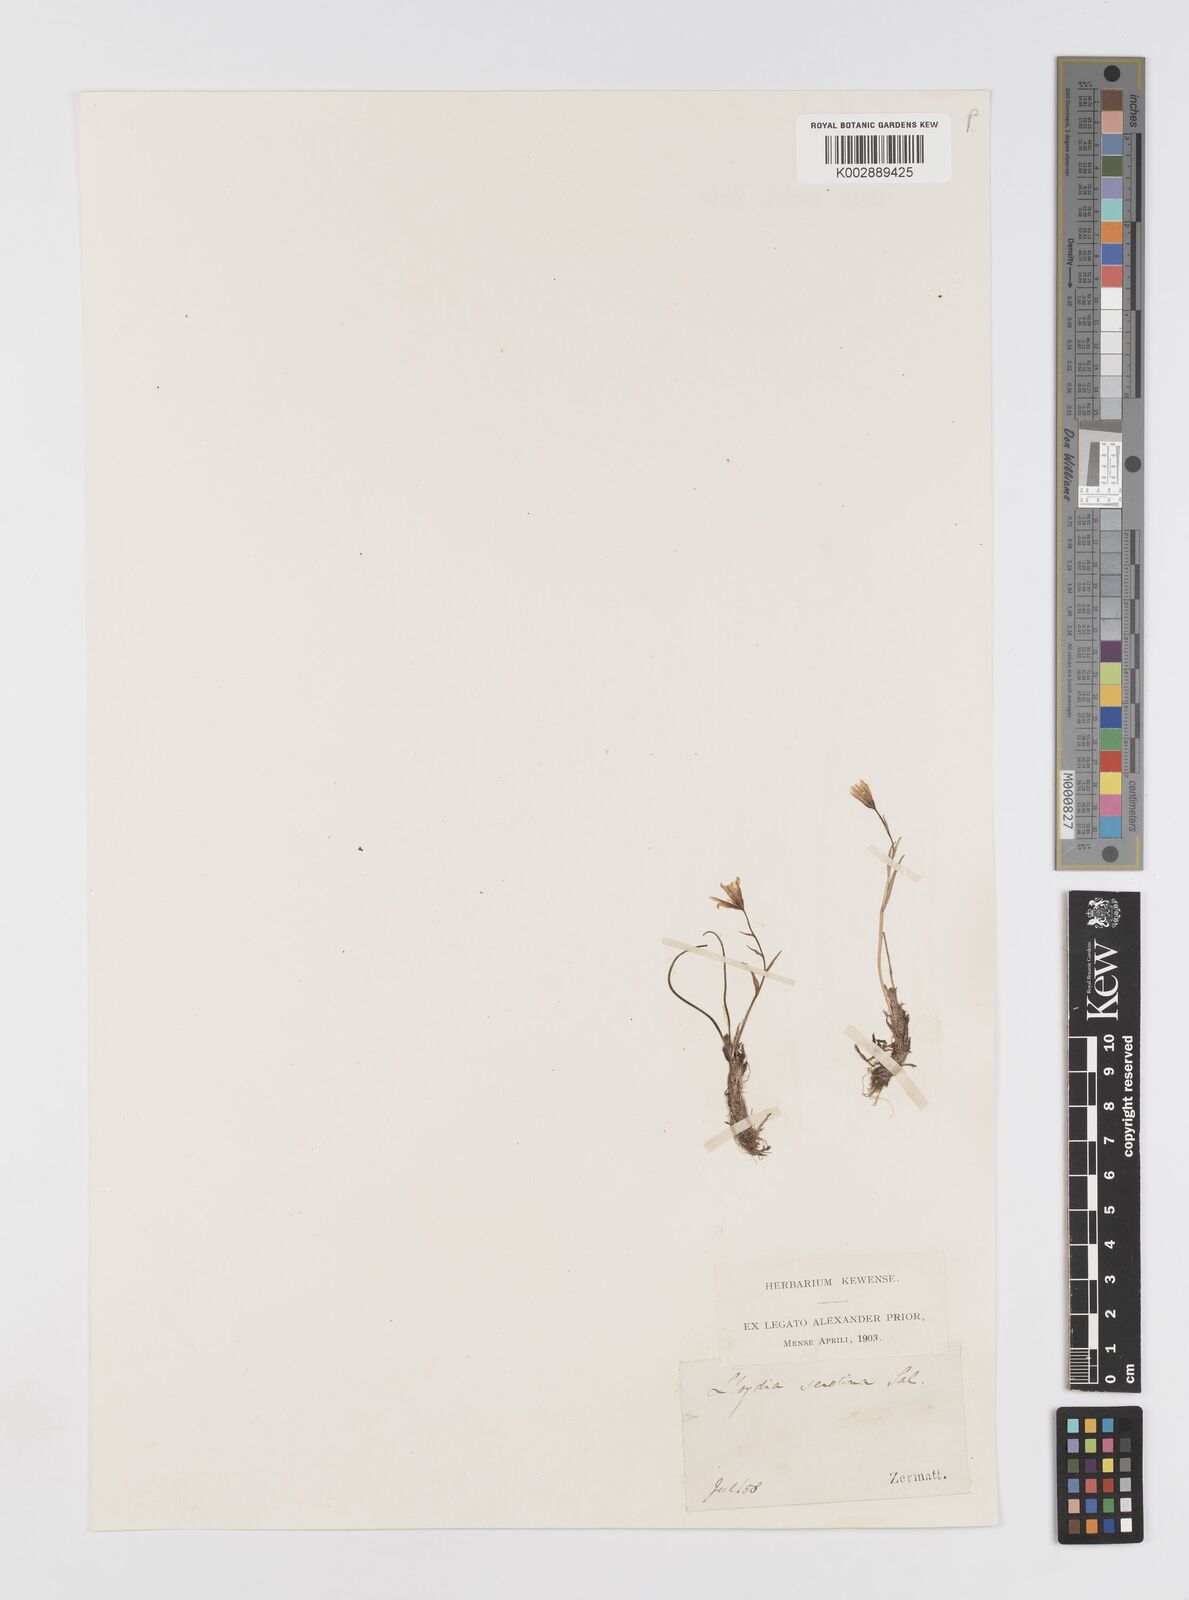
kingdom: Plantae
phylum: Tracheophyta
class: Liliopsida
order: Liliales
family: Liliaceae
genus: Gagea
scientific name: Gagea
